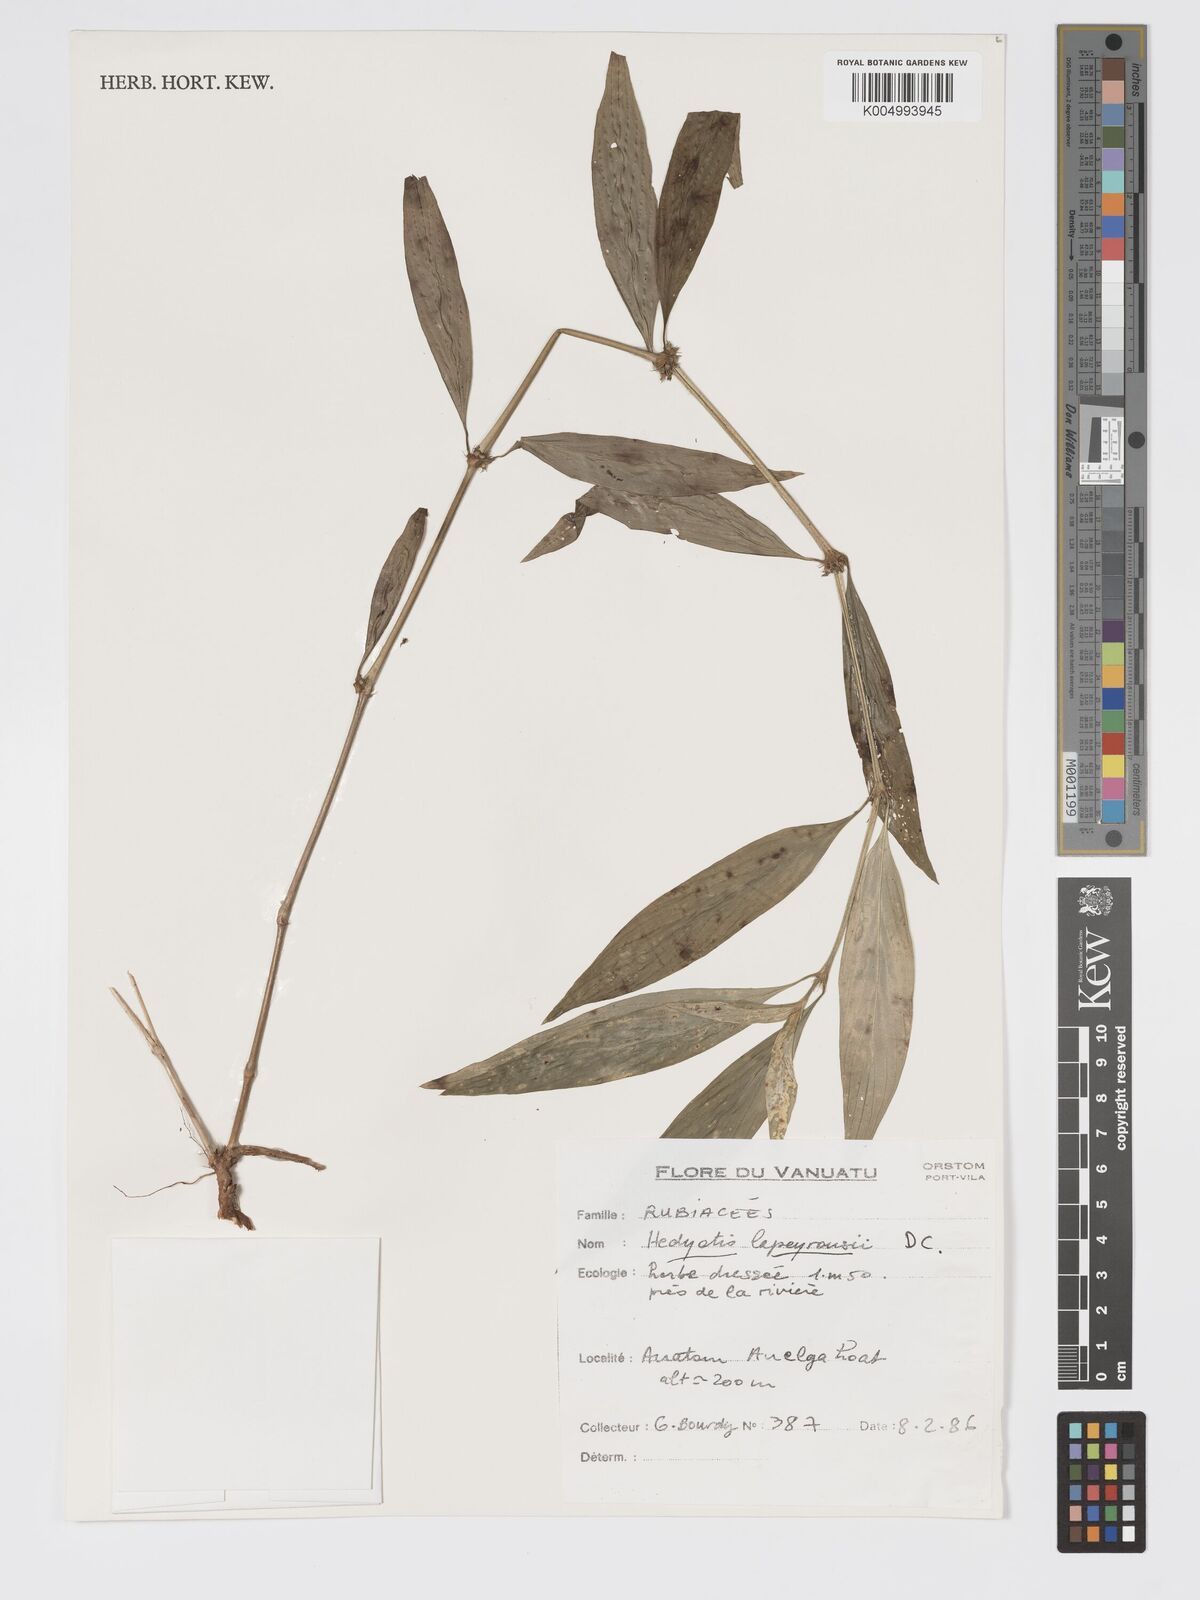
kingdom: Plantae
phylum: Tracheophyta
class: Magnoliopsida
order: Gentianales
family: Rubiaceae
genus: Exallage
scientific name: Exallage lapeyrousei
